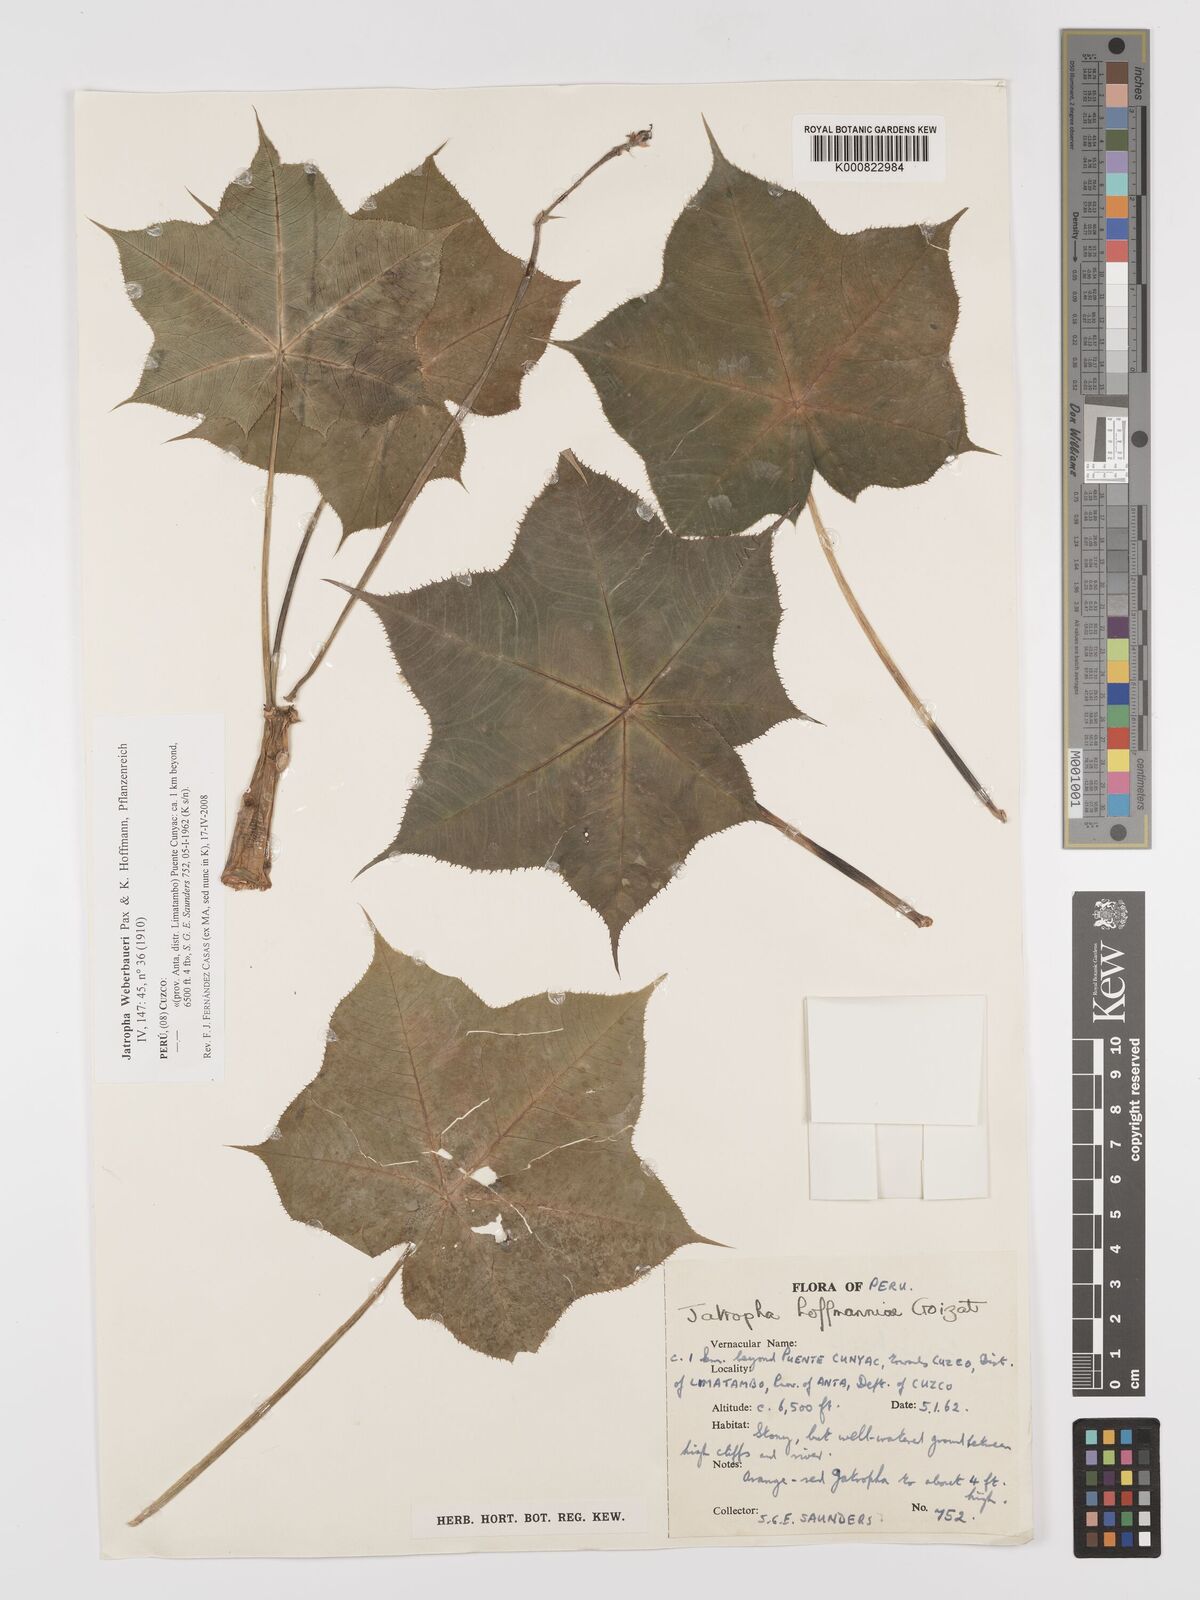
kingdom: Plantae
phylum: Tracheophyta
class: Magnoliopsida
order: Malpighiales
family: Euphorbiaceae
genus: Jatropha
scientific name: Jatropha weberbaueri
